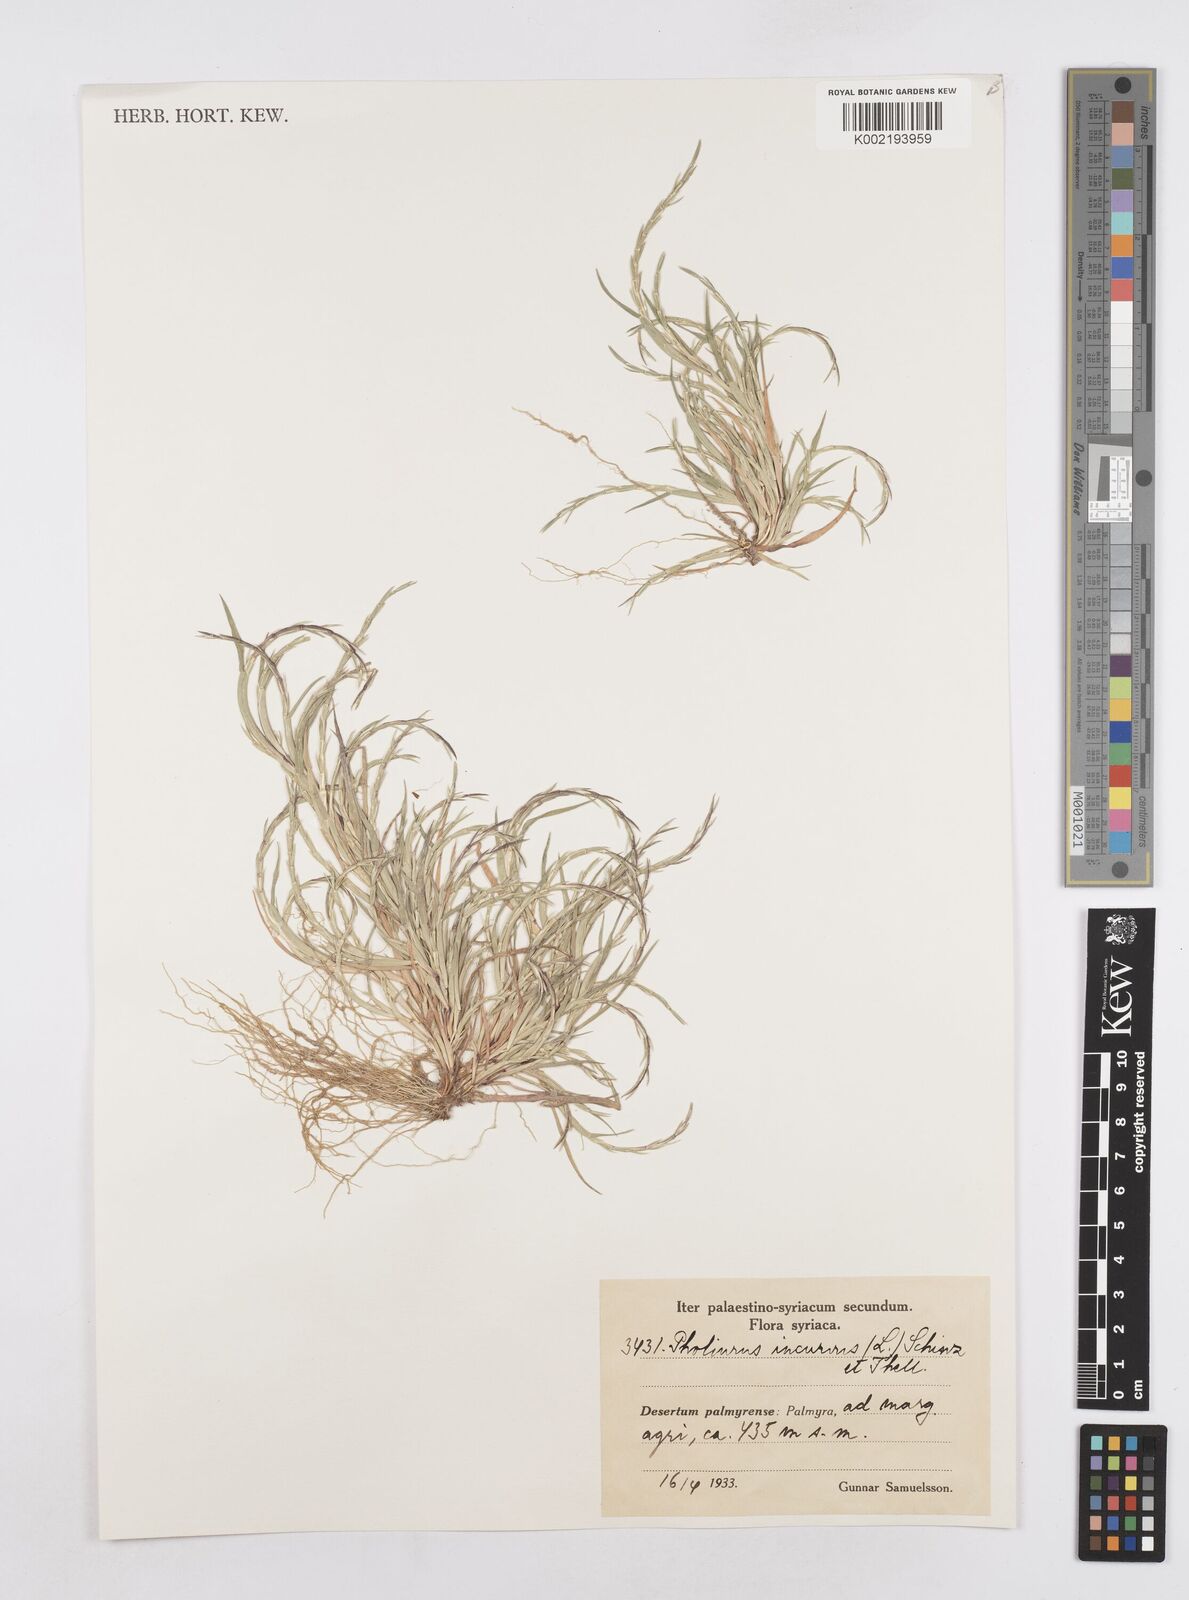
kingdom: Plantae
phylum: Tracheophyta
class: Liliopsida
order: Poales
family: Poaceae
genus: Parapholis
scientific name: Parapholis incurva
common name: Curved sicklegrass
